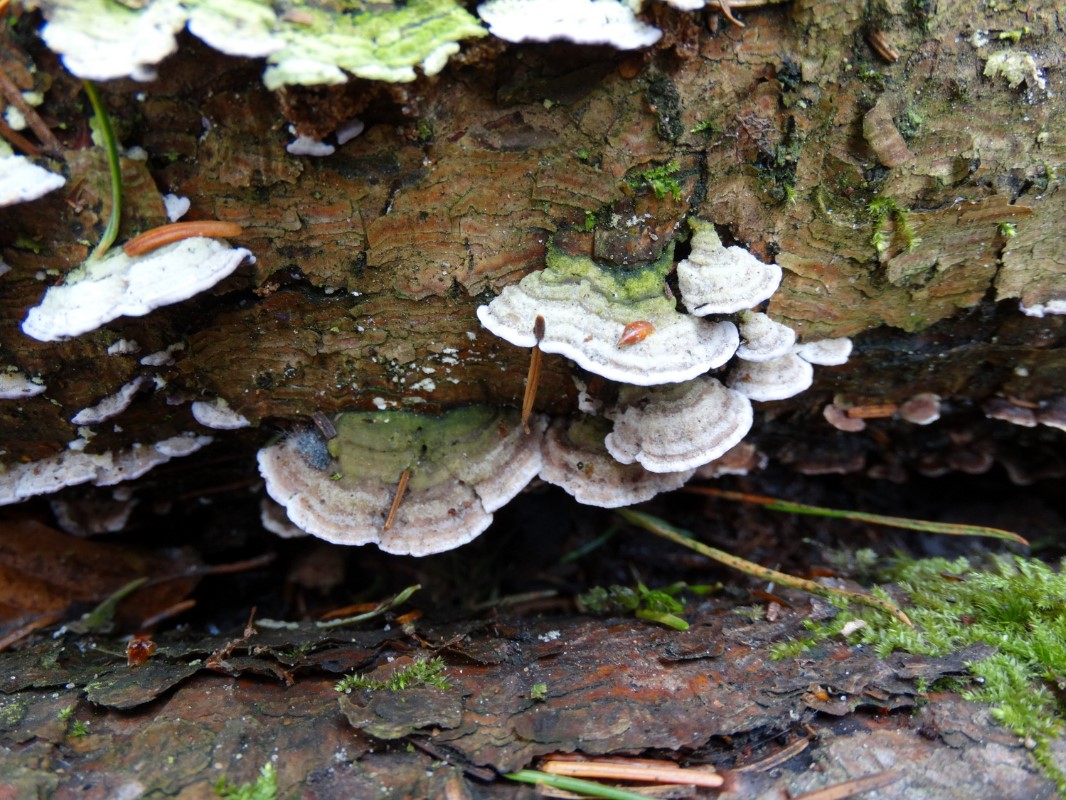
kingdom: Fungi
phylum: Basidiomycota
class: Agaricomycetes
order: Hymenochaetales
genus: Trichaptum
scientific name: Trichaptum abietinum
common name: almindelig violporesvamp
